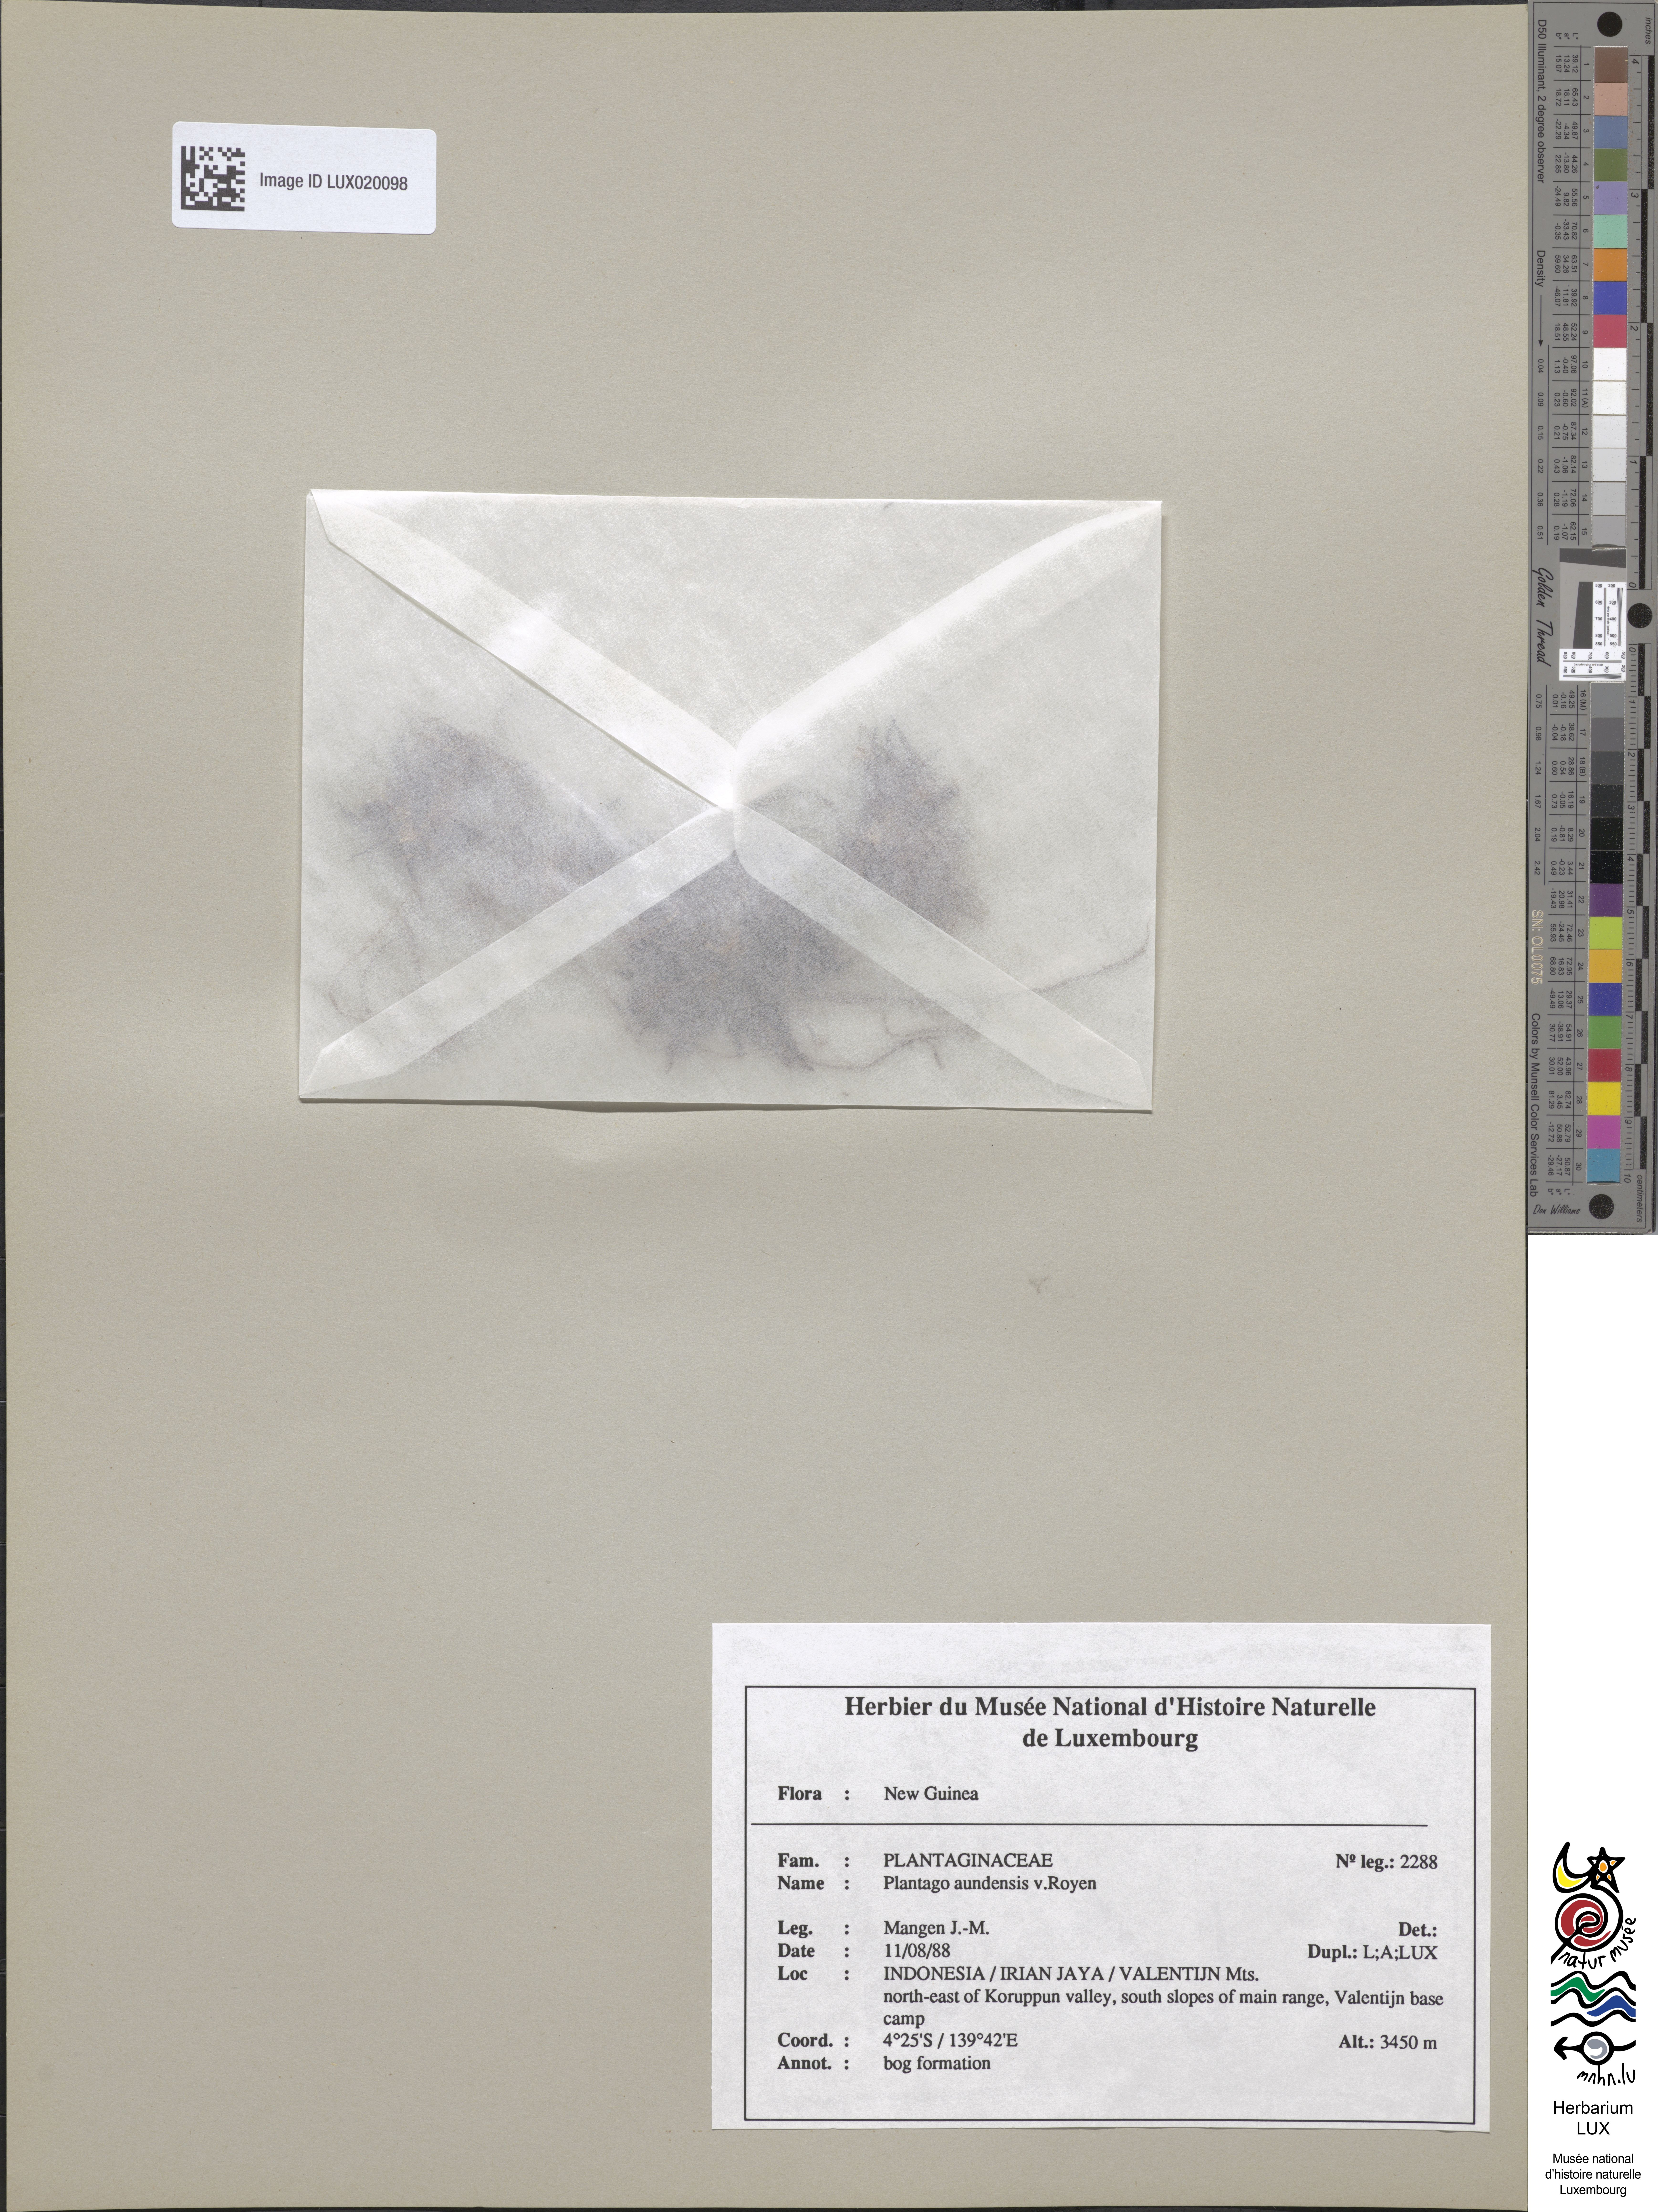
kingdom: Plantae
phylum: Tracheophyta
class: Magnoliopsida
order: Lamiales
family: Plantaginaceae
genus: Plantago
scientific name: Plantago aundensis
